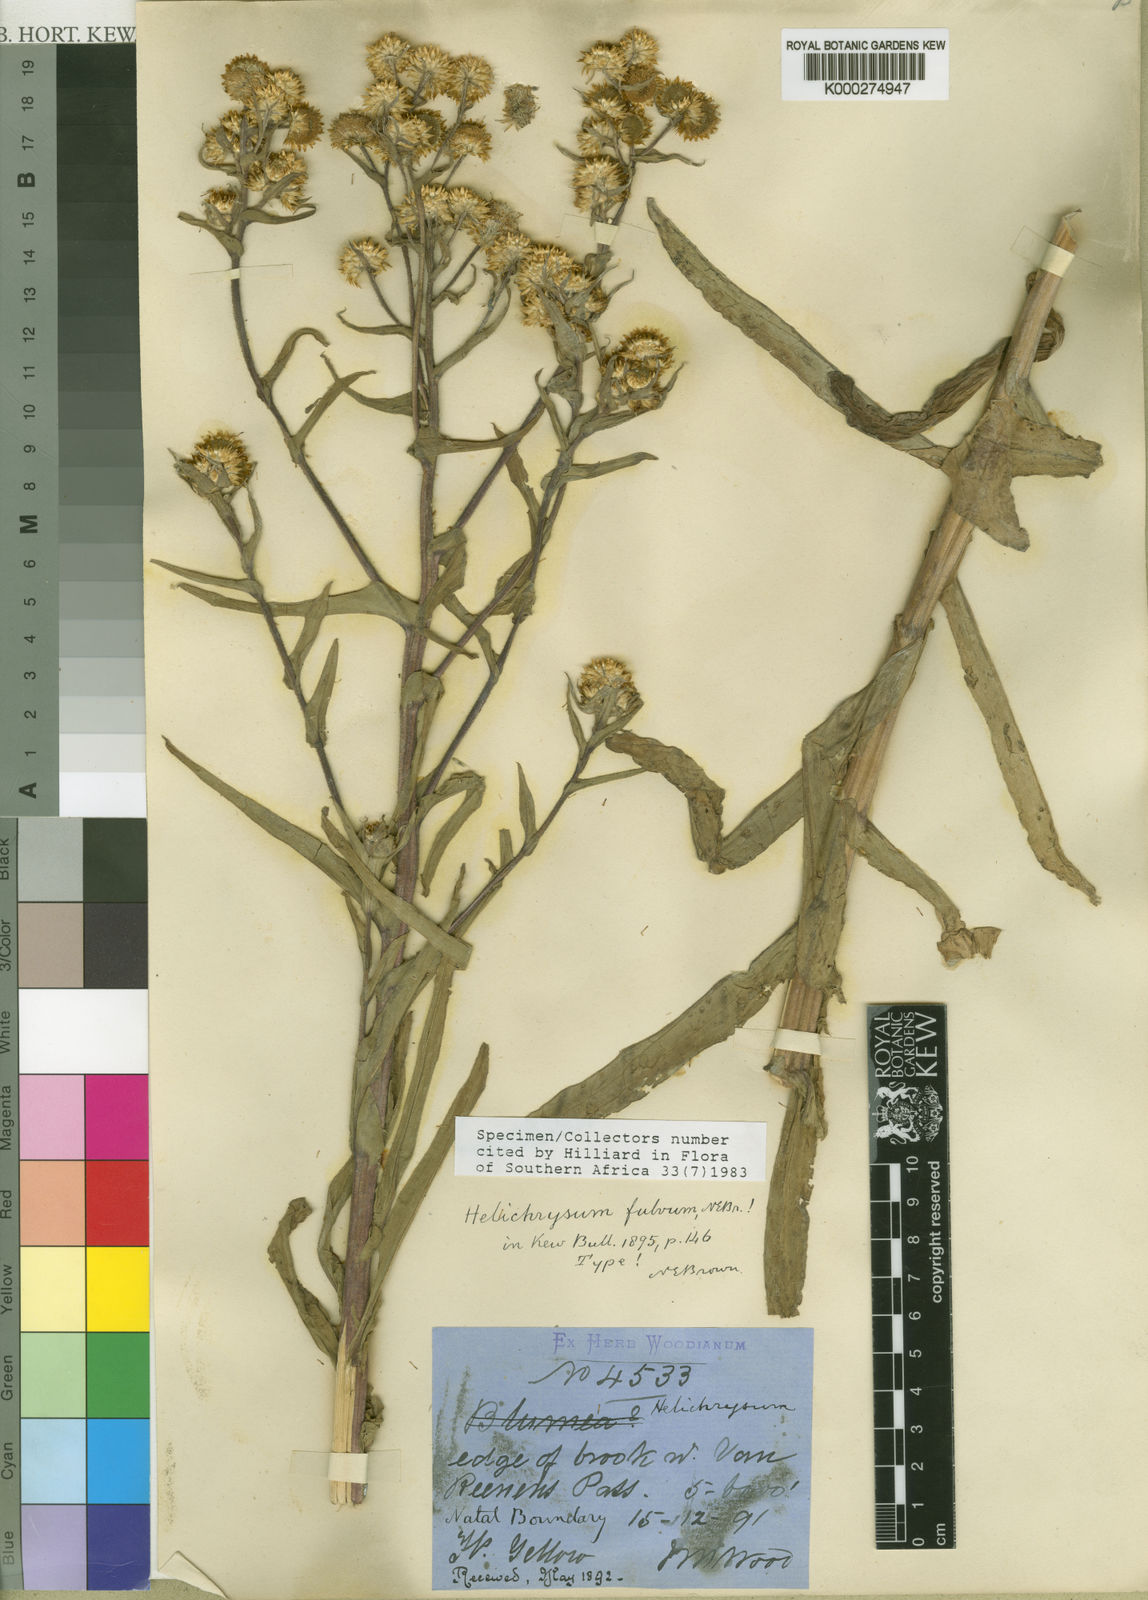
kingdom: Plantae
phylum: Tracheophyta
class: Magnoliopsida
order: Asterales
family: Asteraceae
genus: Helichrysum
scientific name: Helichrysum fulvum
